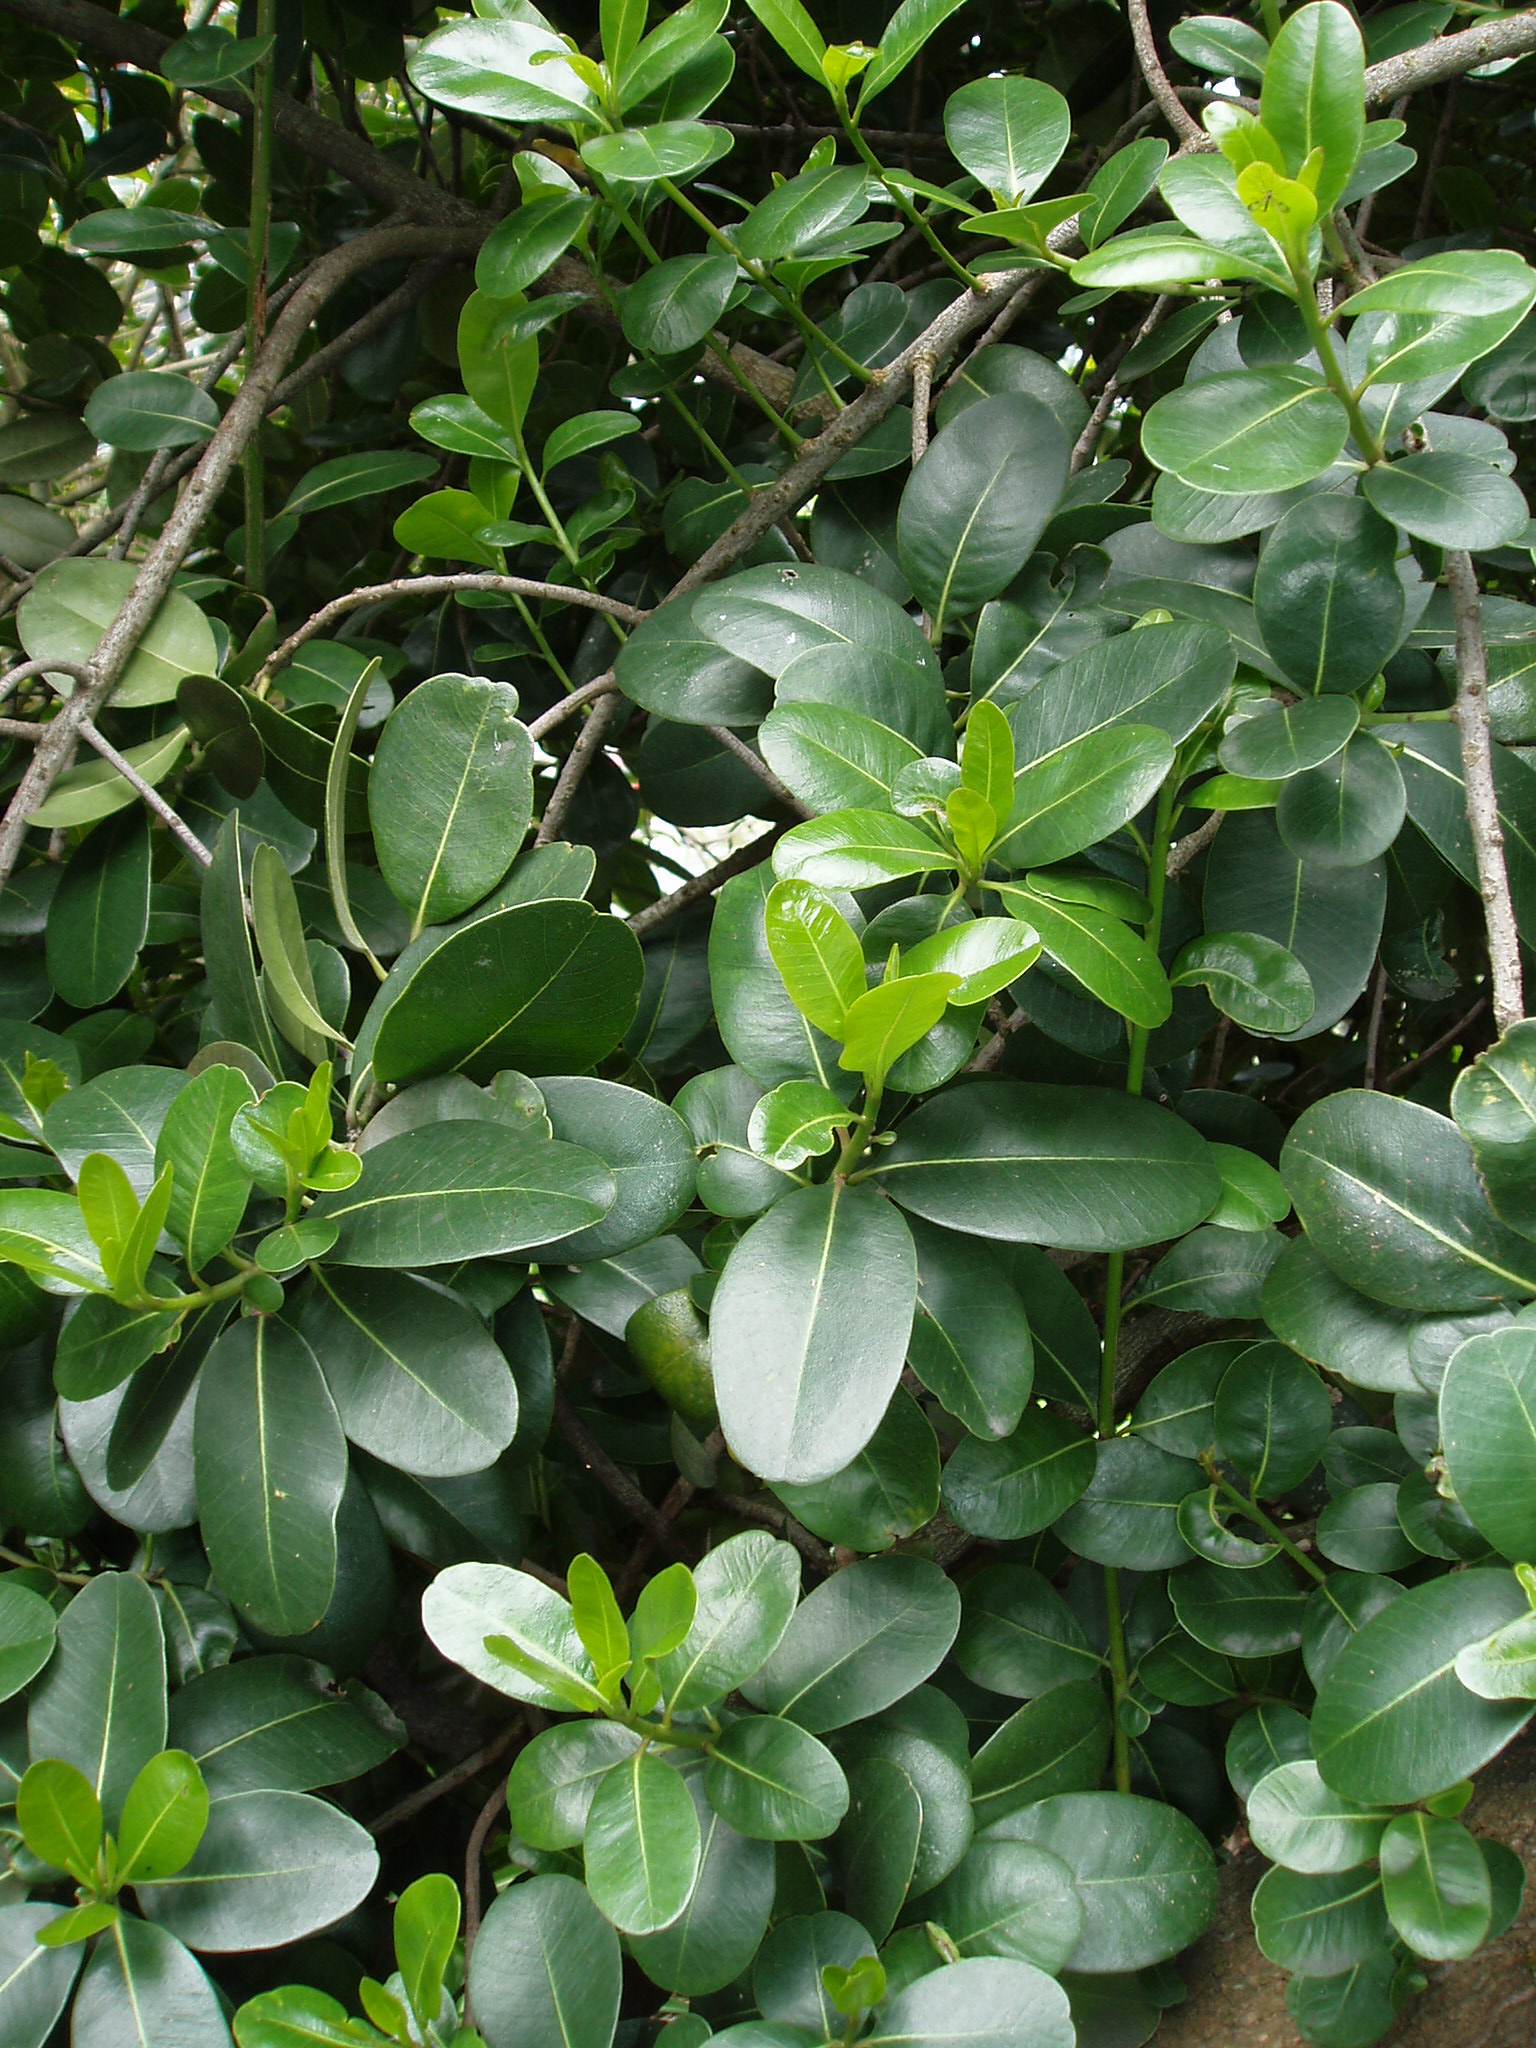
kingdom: Plantae
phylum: Tracheophyta
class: Magnoliopsida
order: Ericales
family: Sapotaceae
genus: Planchonella
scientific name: Planchonella
